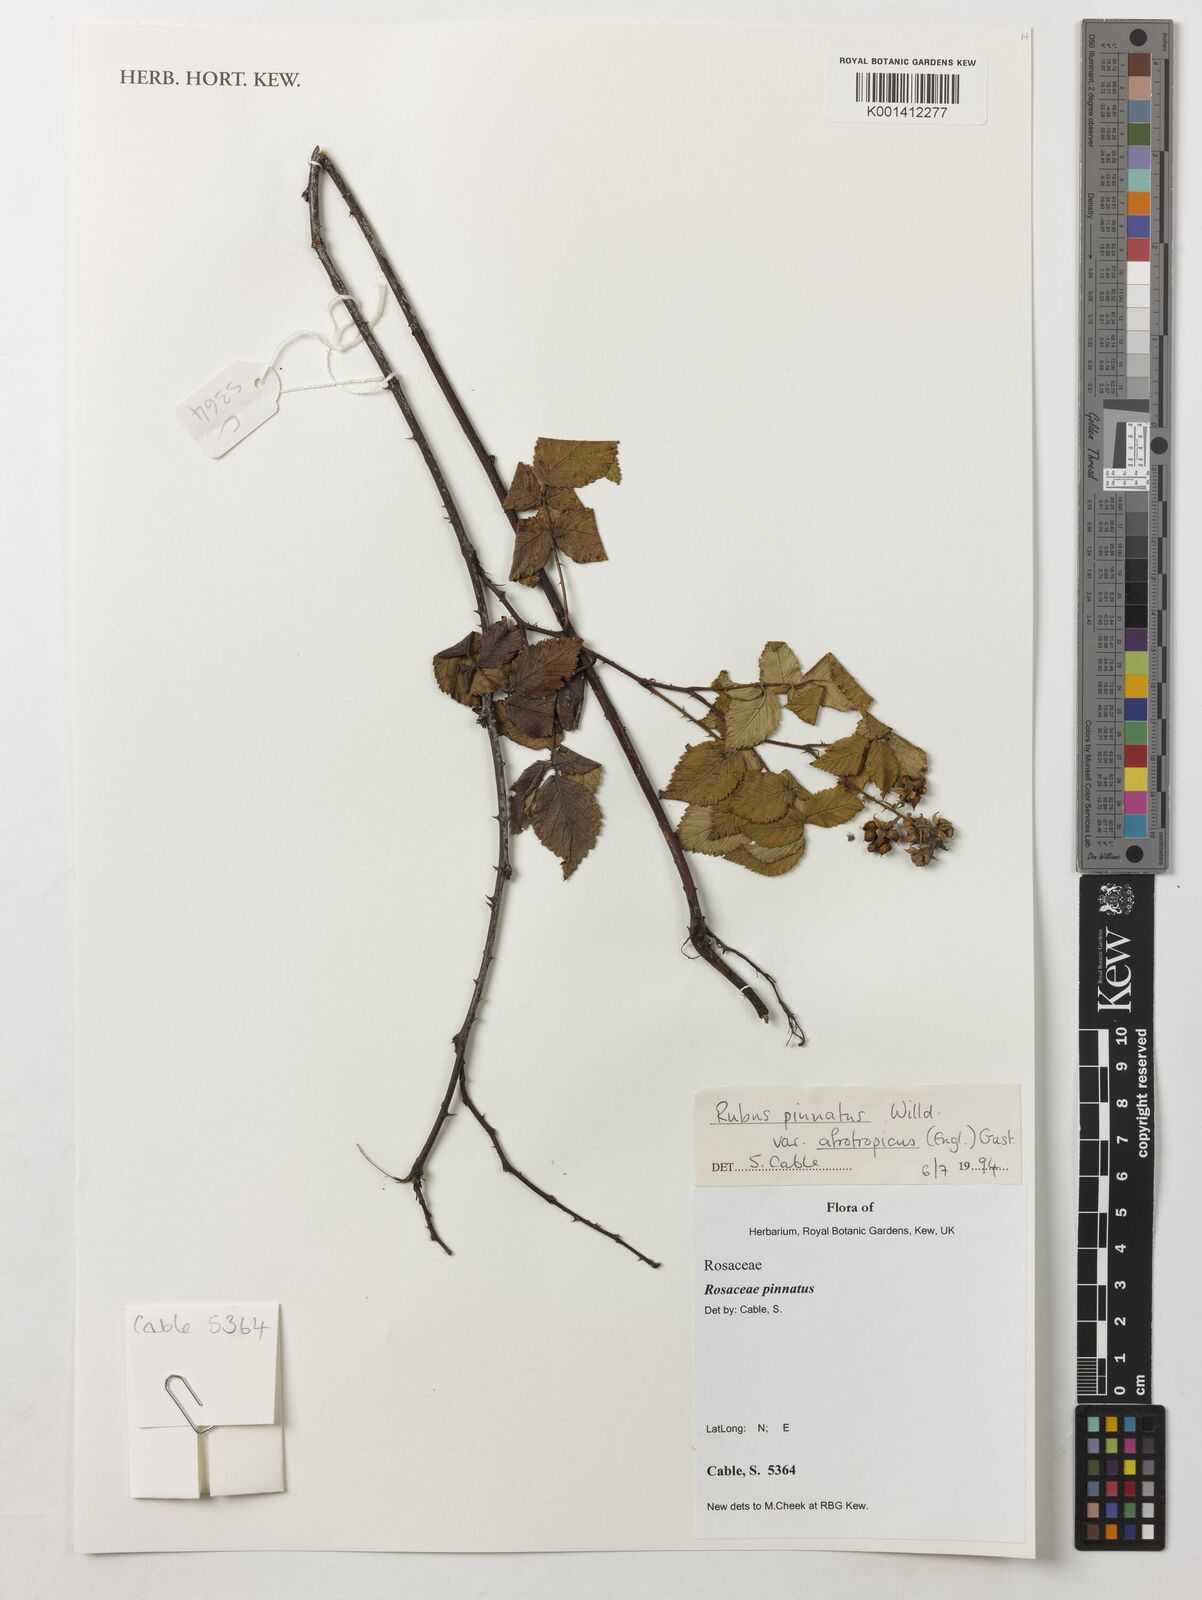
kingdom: Plantae
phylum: Tracheophyta
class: Magnoliopsida
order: Rosales
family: Rosaceae
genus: Rubus
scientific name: Rubus pinnatus
